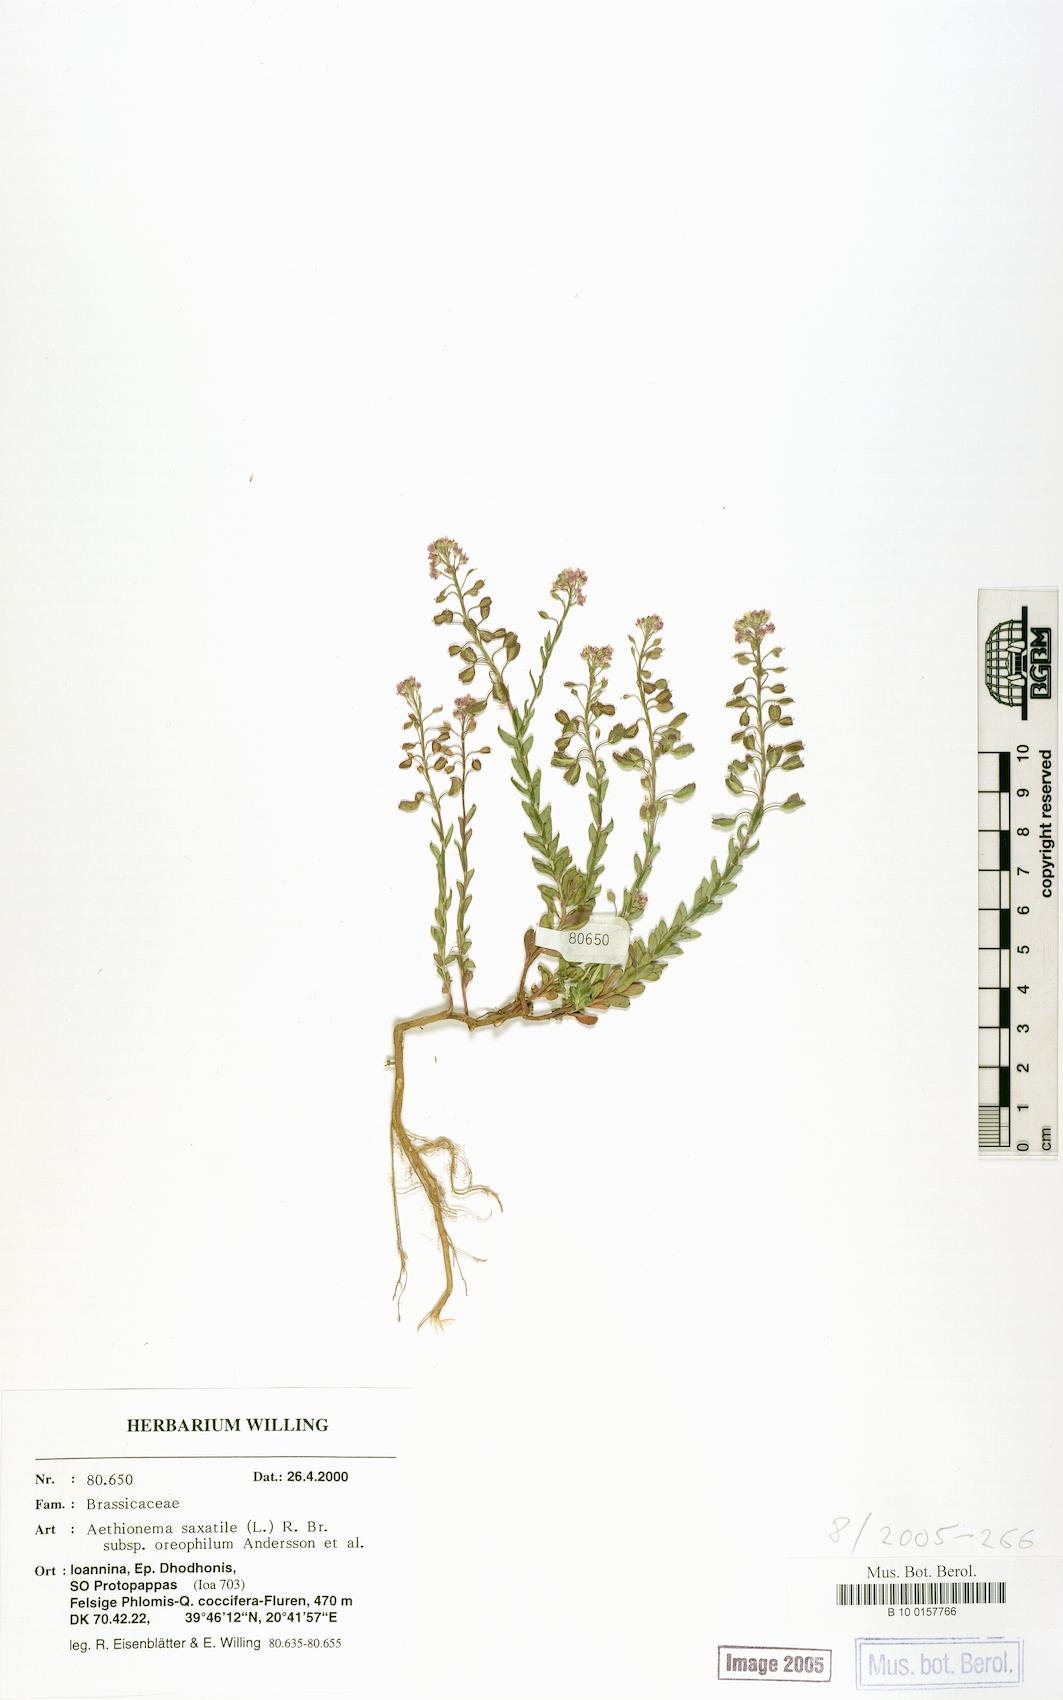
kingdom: Plantae
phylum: Tracheophyta
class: Magnoliopsida
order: Brassicales
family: Brassicaceae
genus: Aethionema
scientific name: Aethionema saxatile
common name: Burnt candytuft
